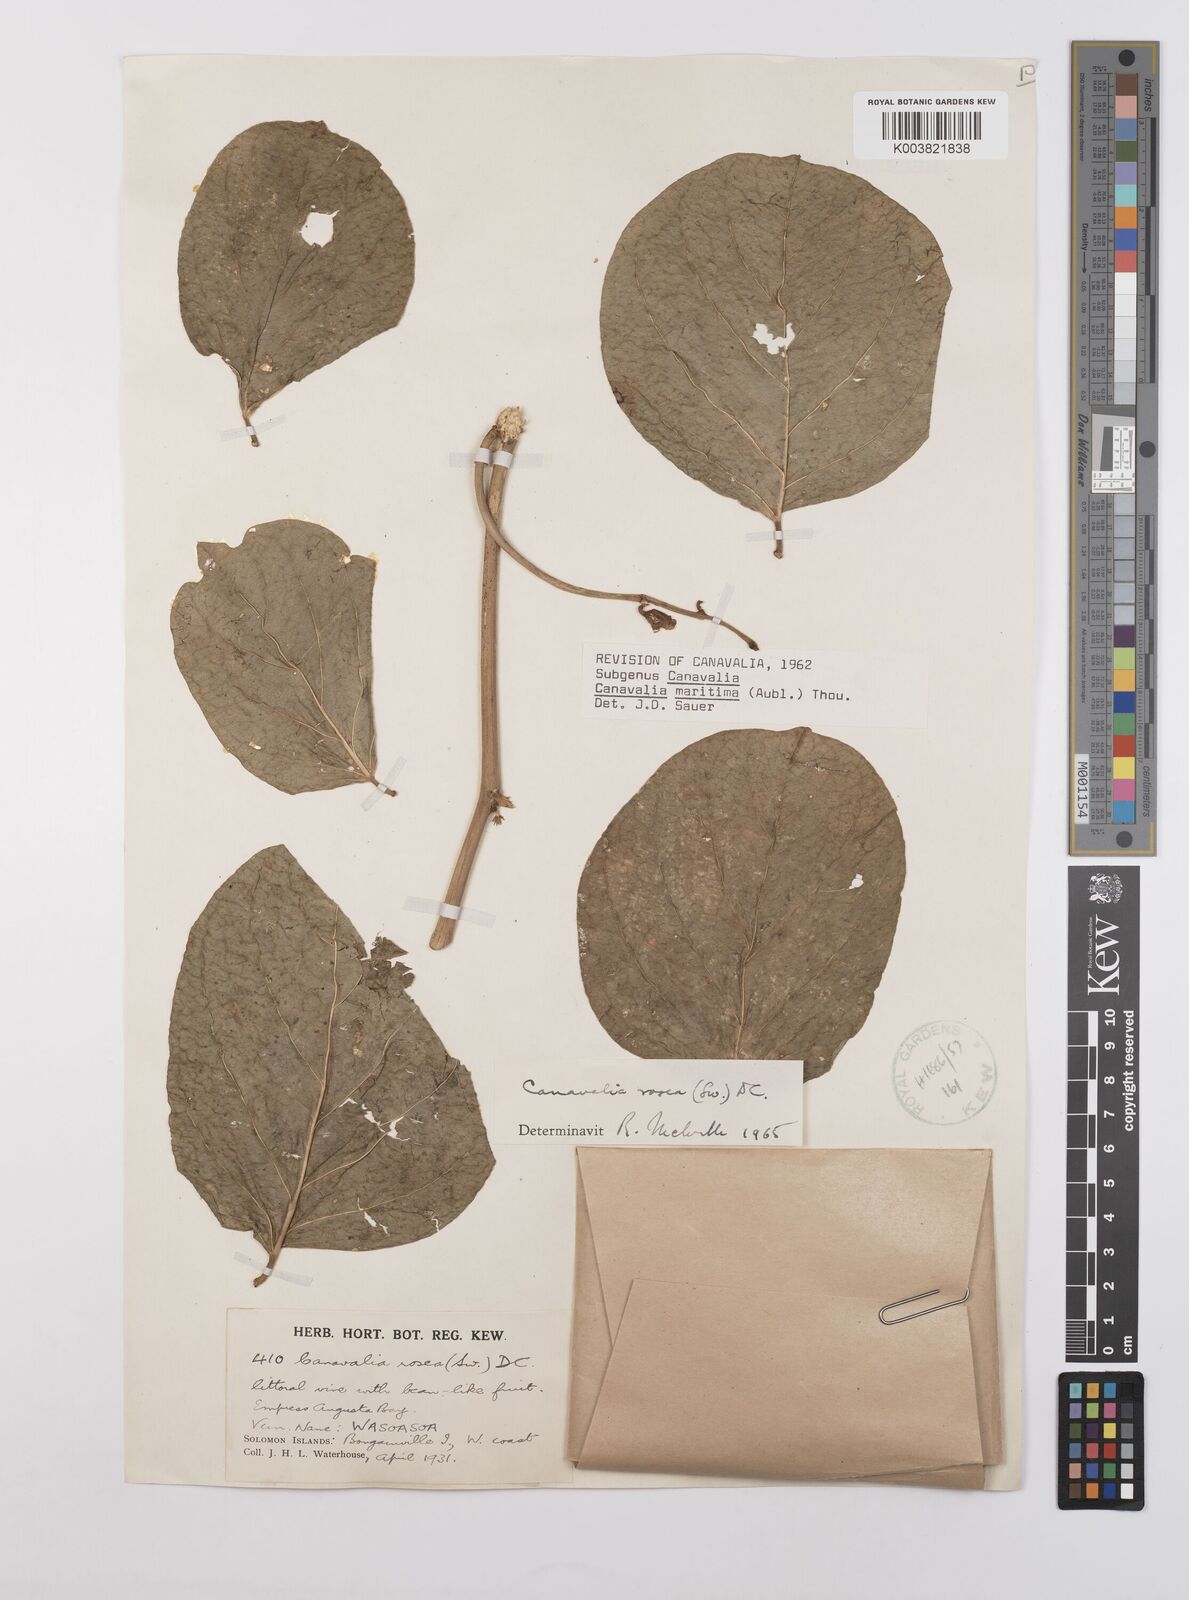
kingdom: Plantae
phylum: Tracheophyta
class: Magnoliopsida
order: Fabales
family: Fabaceae
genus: Canavalia
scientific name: Canavalia rosea
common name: Beach-bean
